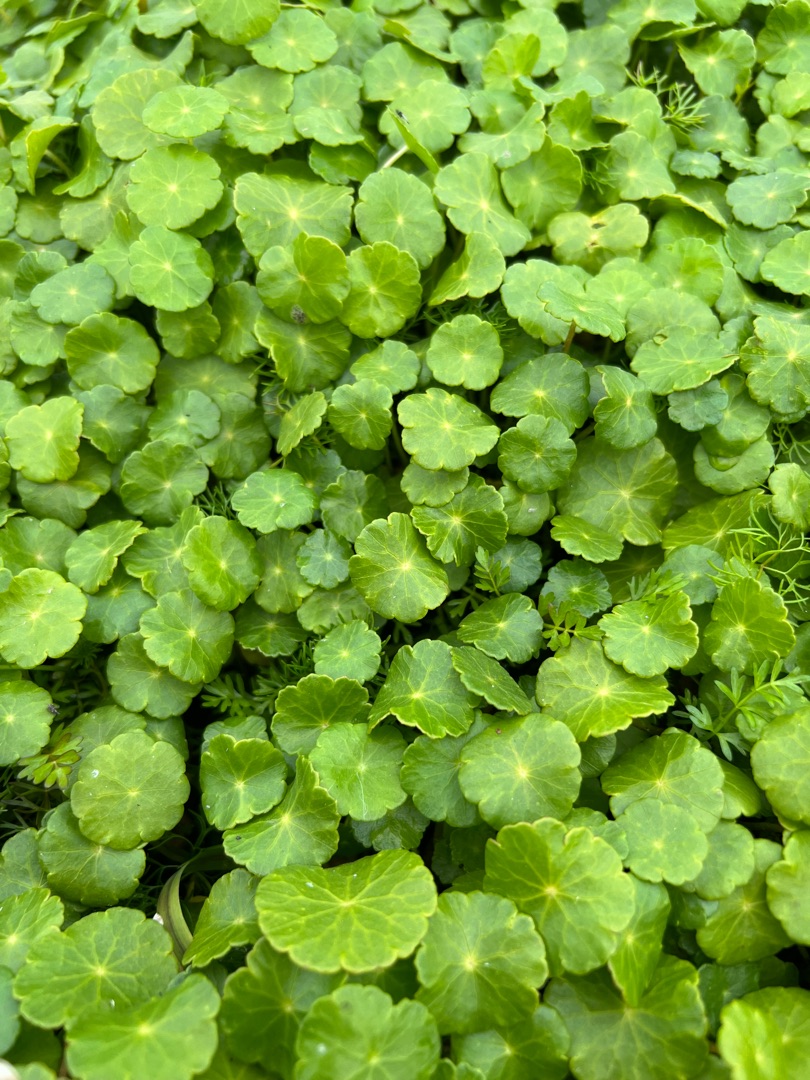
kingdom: Plantae
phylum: Tracheophyta
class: Magnoliopsida
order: Apiales
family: Araliaceae
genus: Hydrocotyle
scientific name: Hydrocotyle vulgaris
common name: Vandnavle
